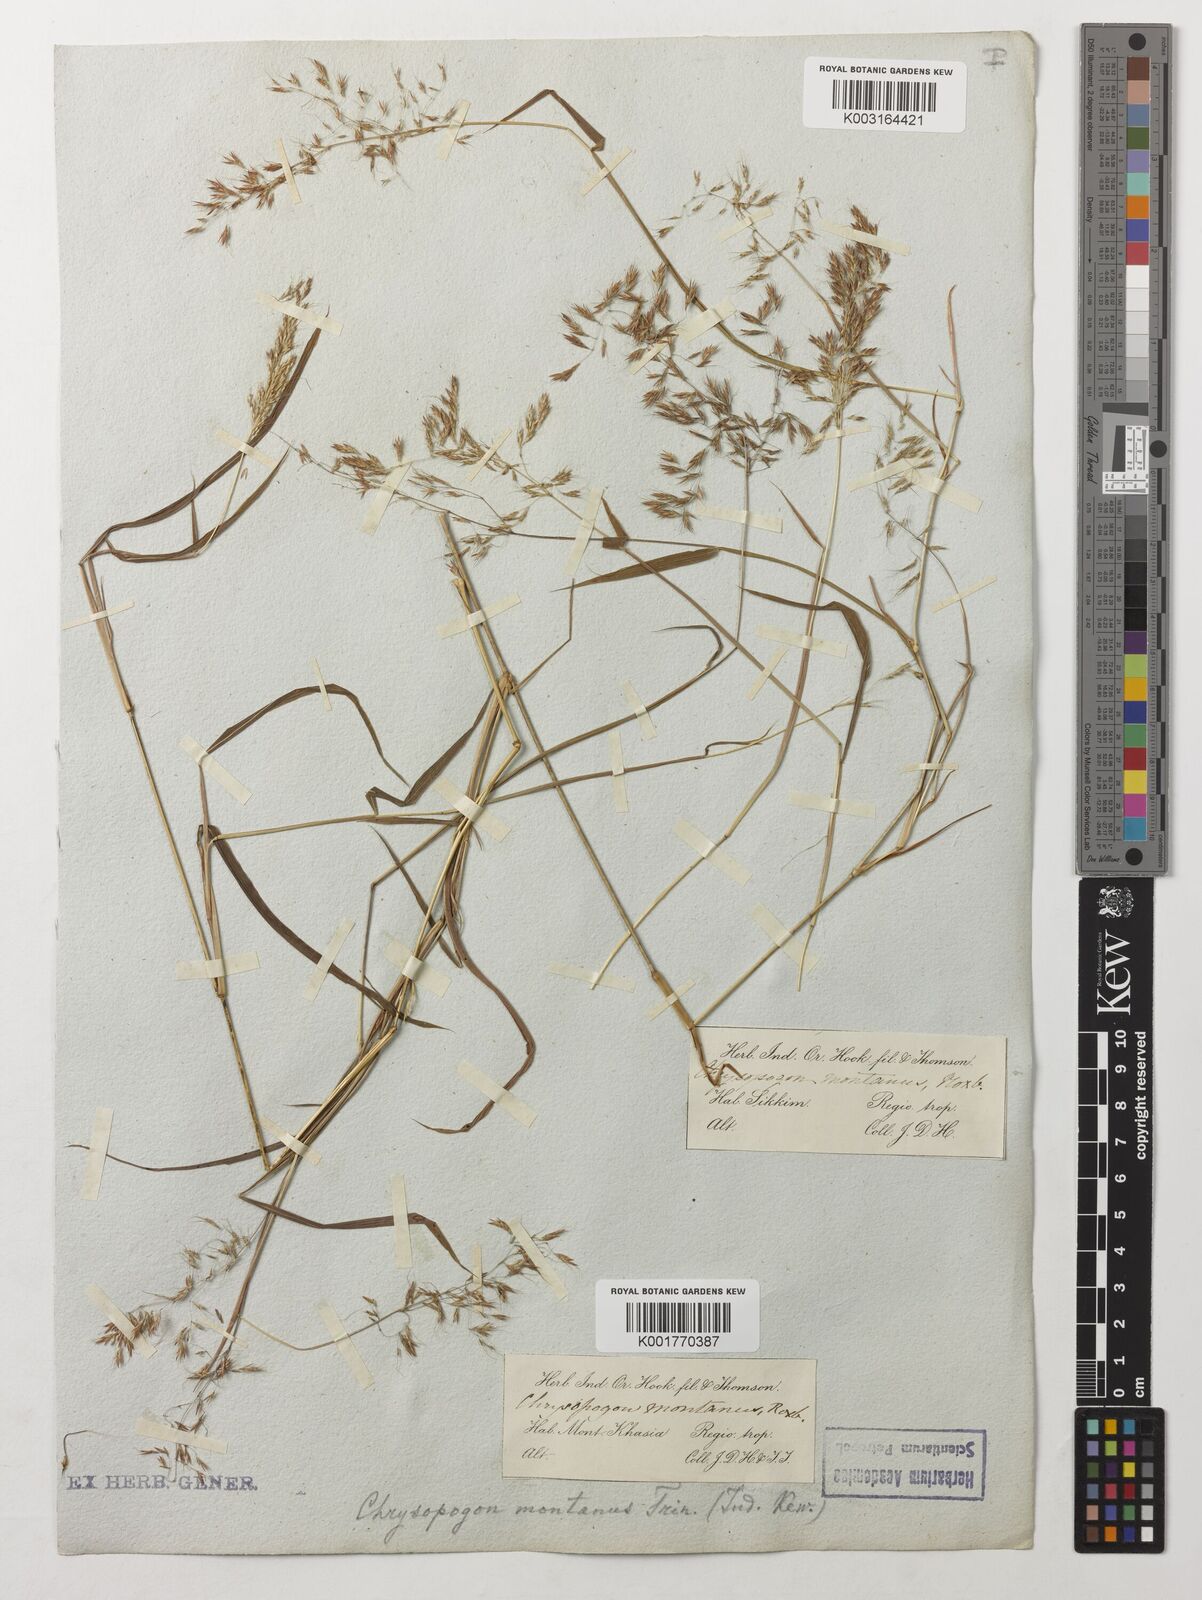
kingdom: Plantae
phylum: Tracheophyta
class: Liliopsida
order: Poales
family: Poaceae
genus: Capillipedium
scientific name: Capillipedium assimile
